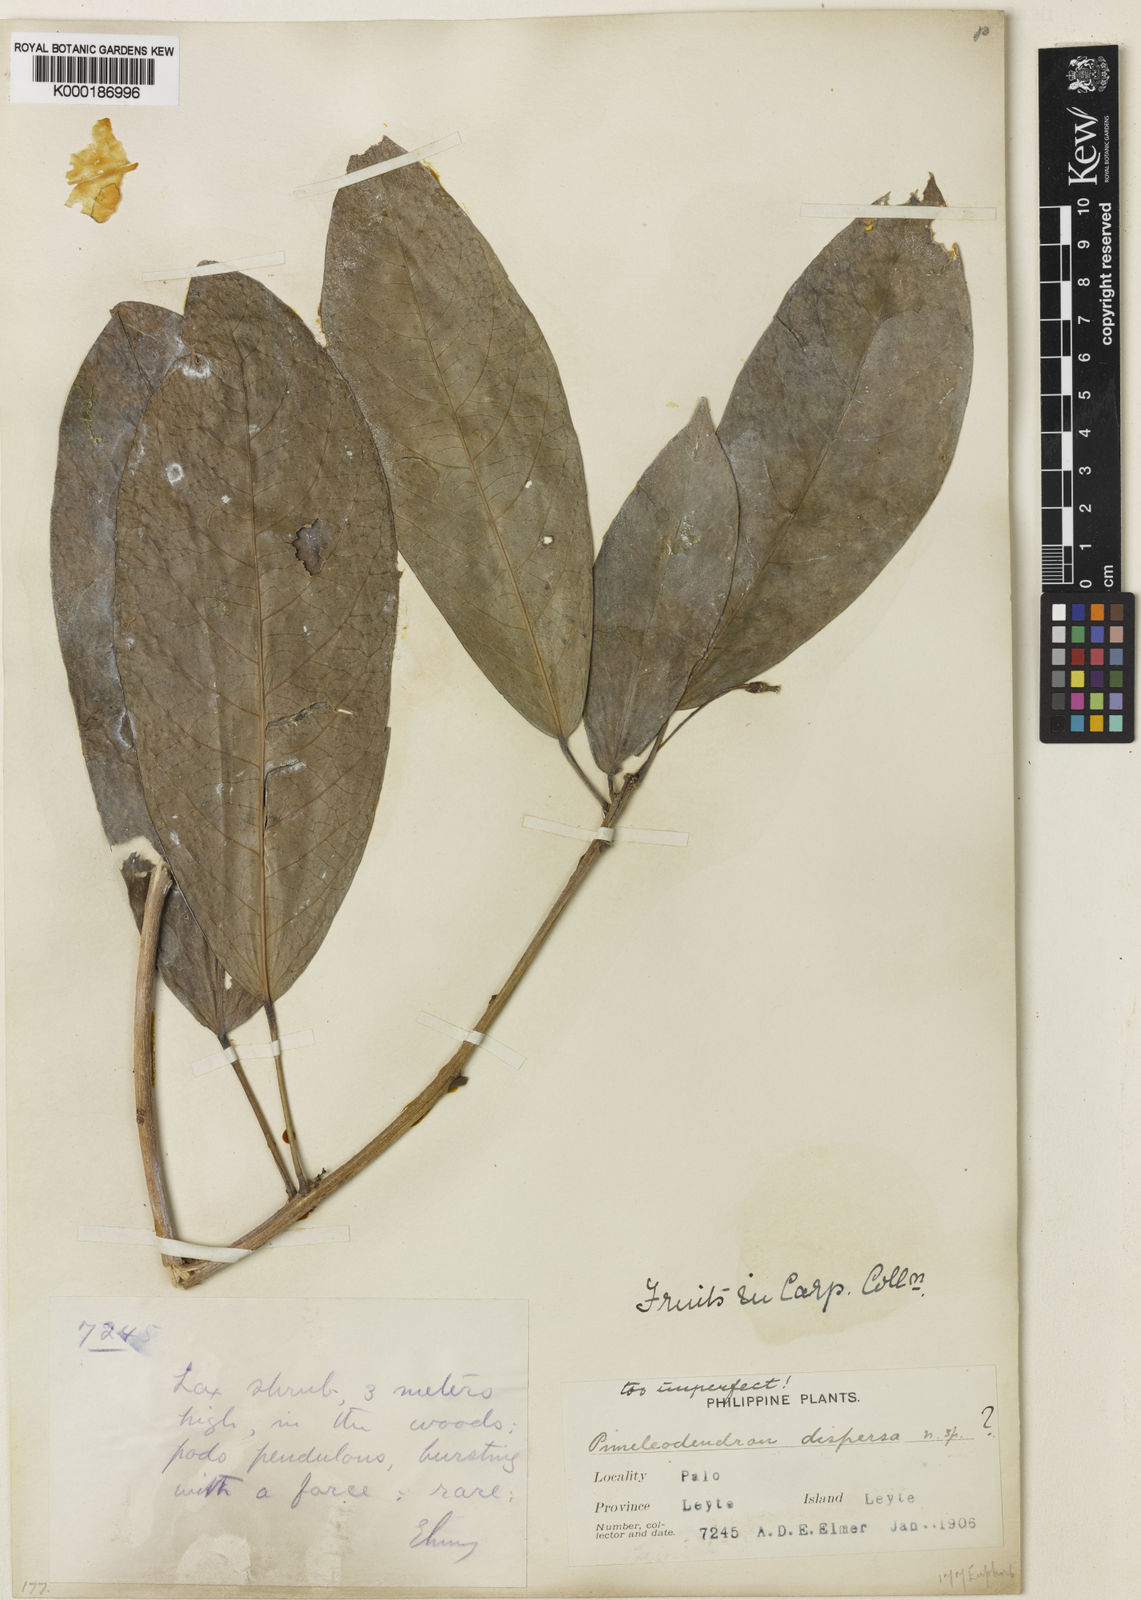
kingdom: Plantae
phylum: Tracheophyta
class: Magnoliopsida
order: Malpighiales
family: Phyllanthaceae
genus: Actephila
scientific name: Actephila
